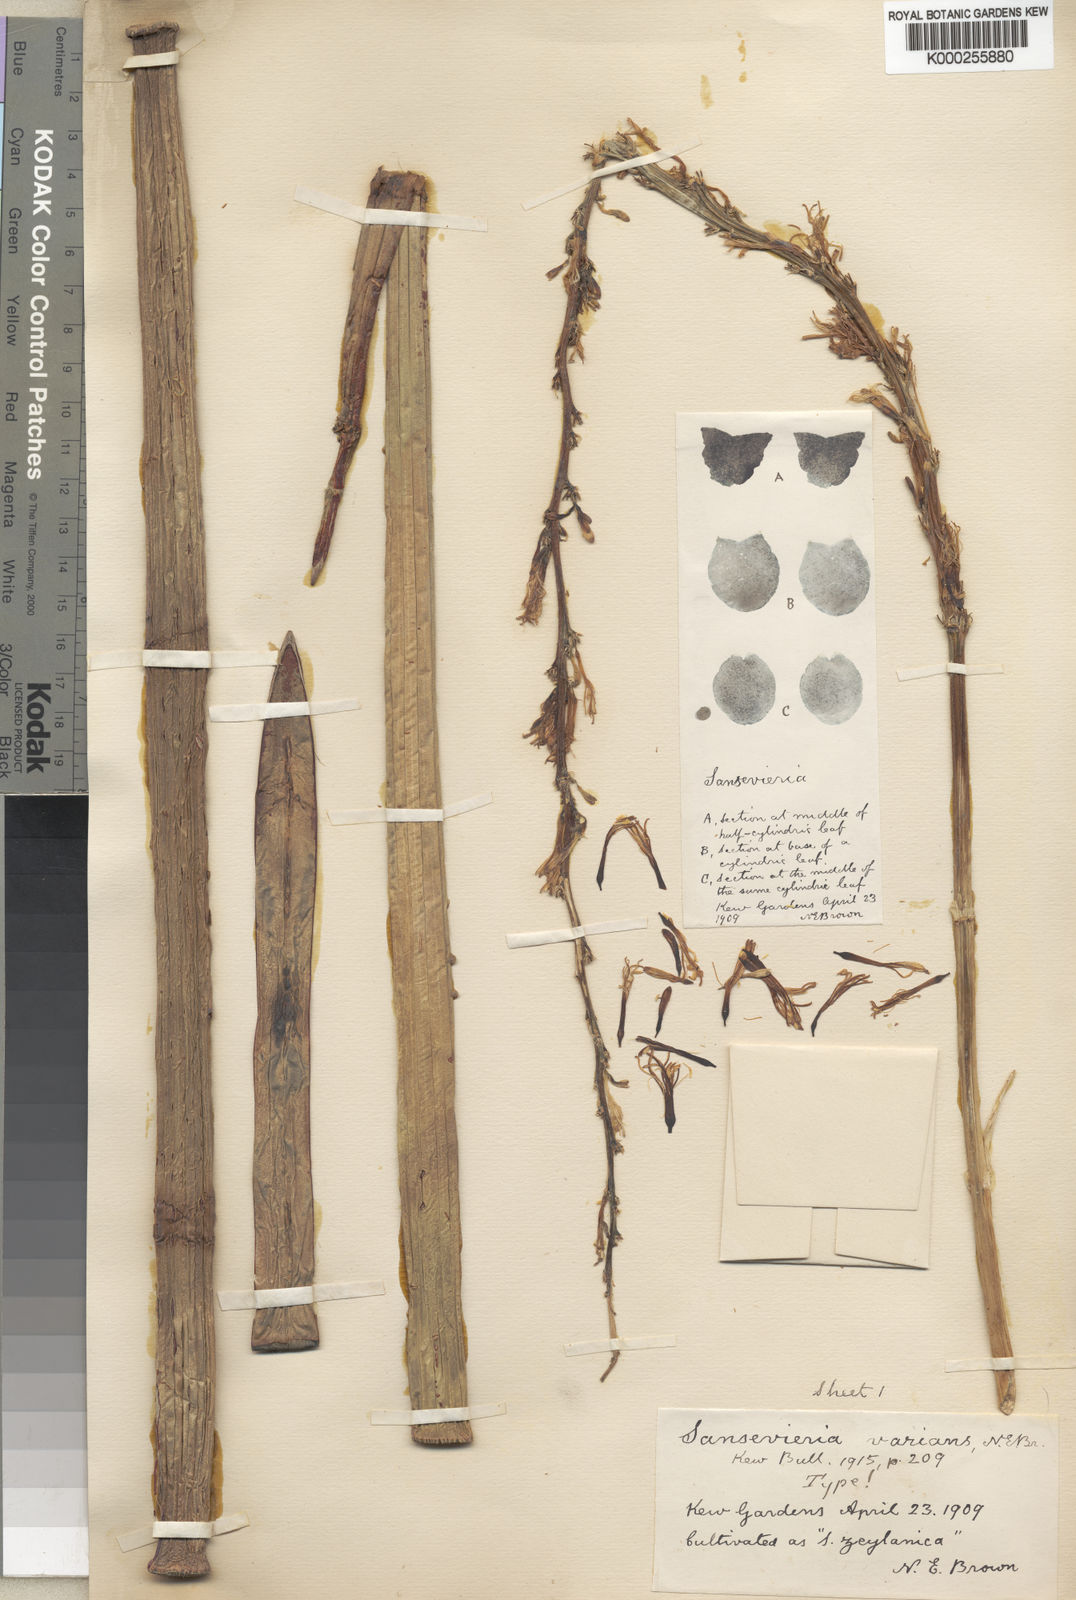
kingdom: Plantae
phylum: Tracheophyta
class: Liliopsida
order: Asparagales
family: Asparagaceae
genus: Dracaena
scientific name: Dracaena varians
